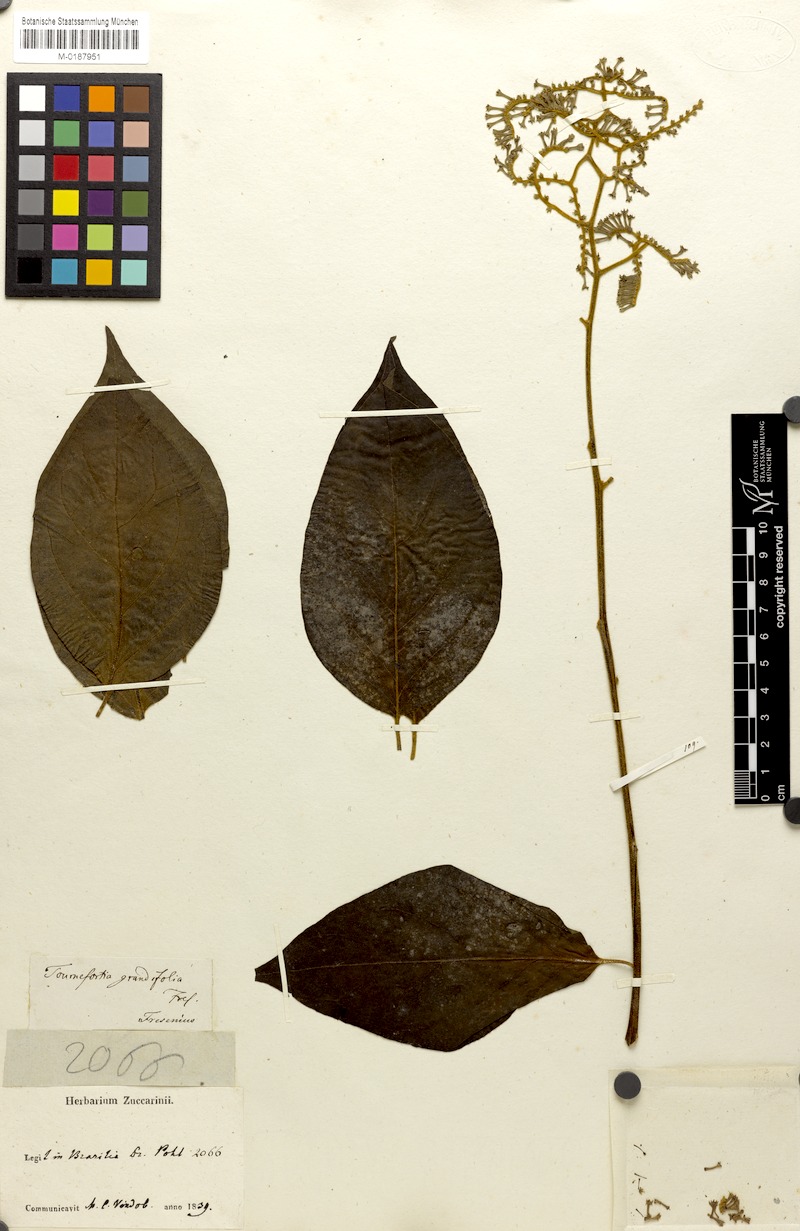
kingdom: Plantae
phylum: Tracheophyta
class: Magnoliopsida
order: Boraginales
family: Heliotropiaceae
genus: Myriopus
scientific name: Myriopus paniculatus
